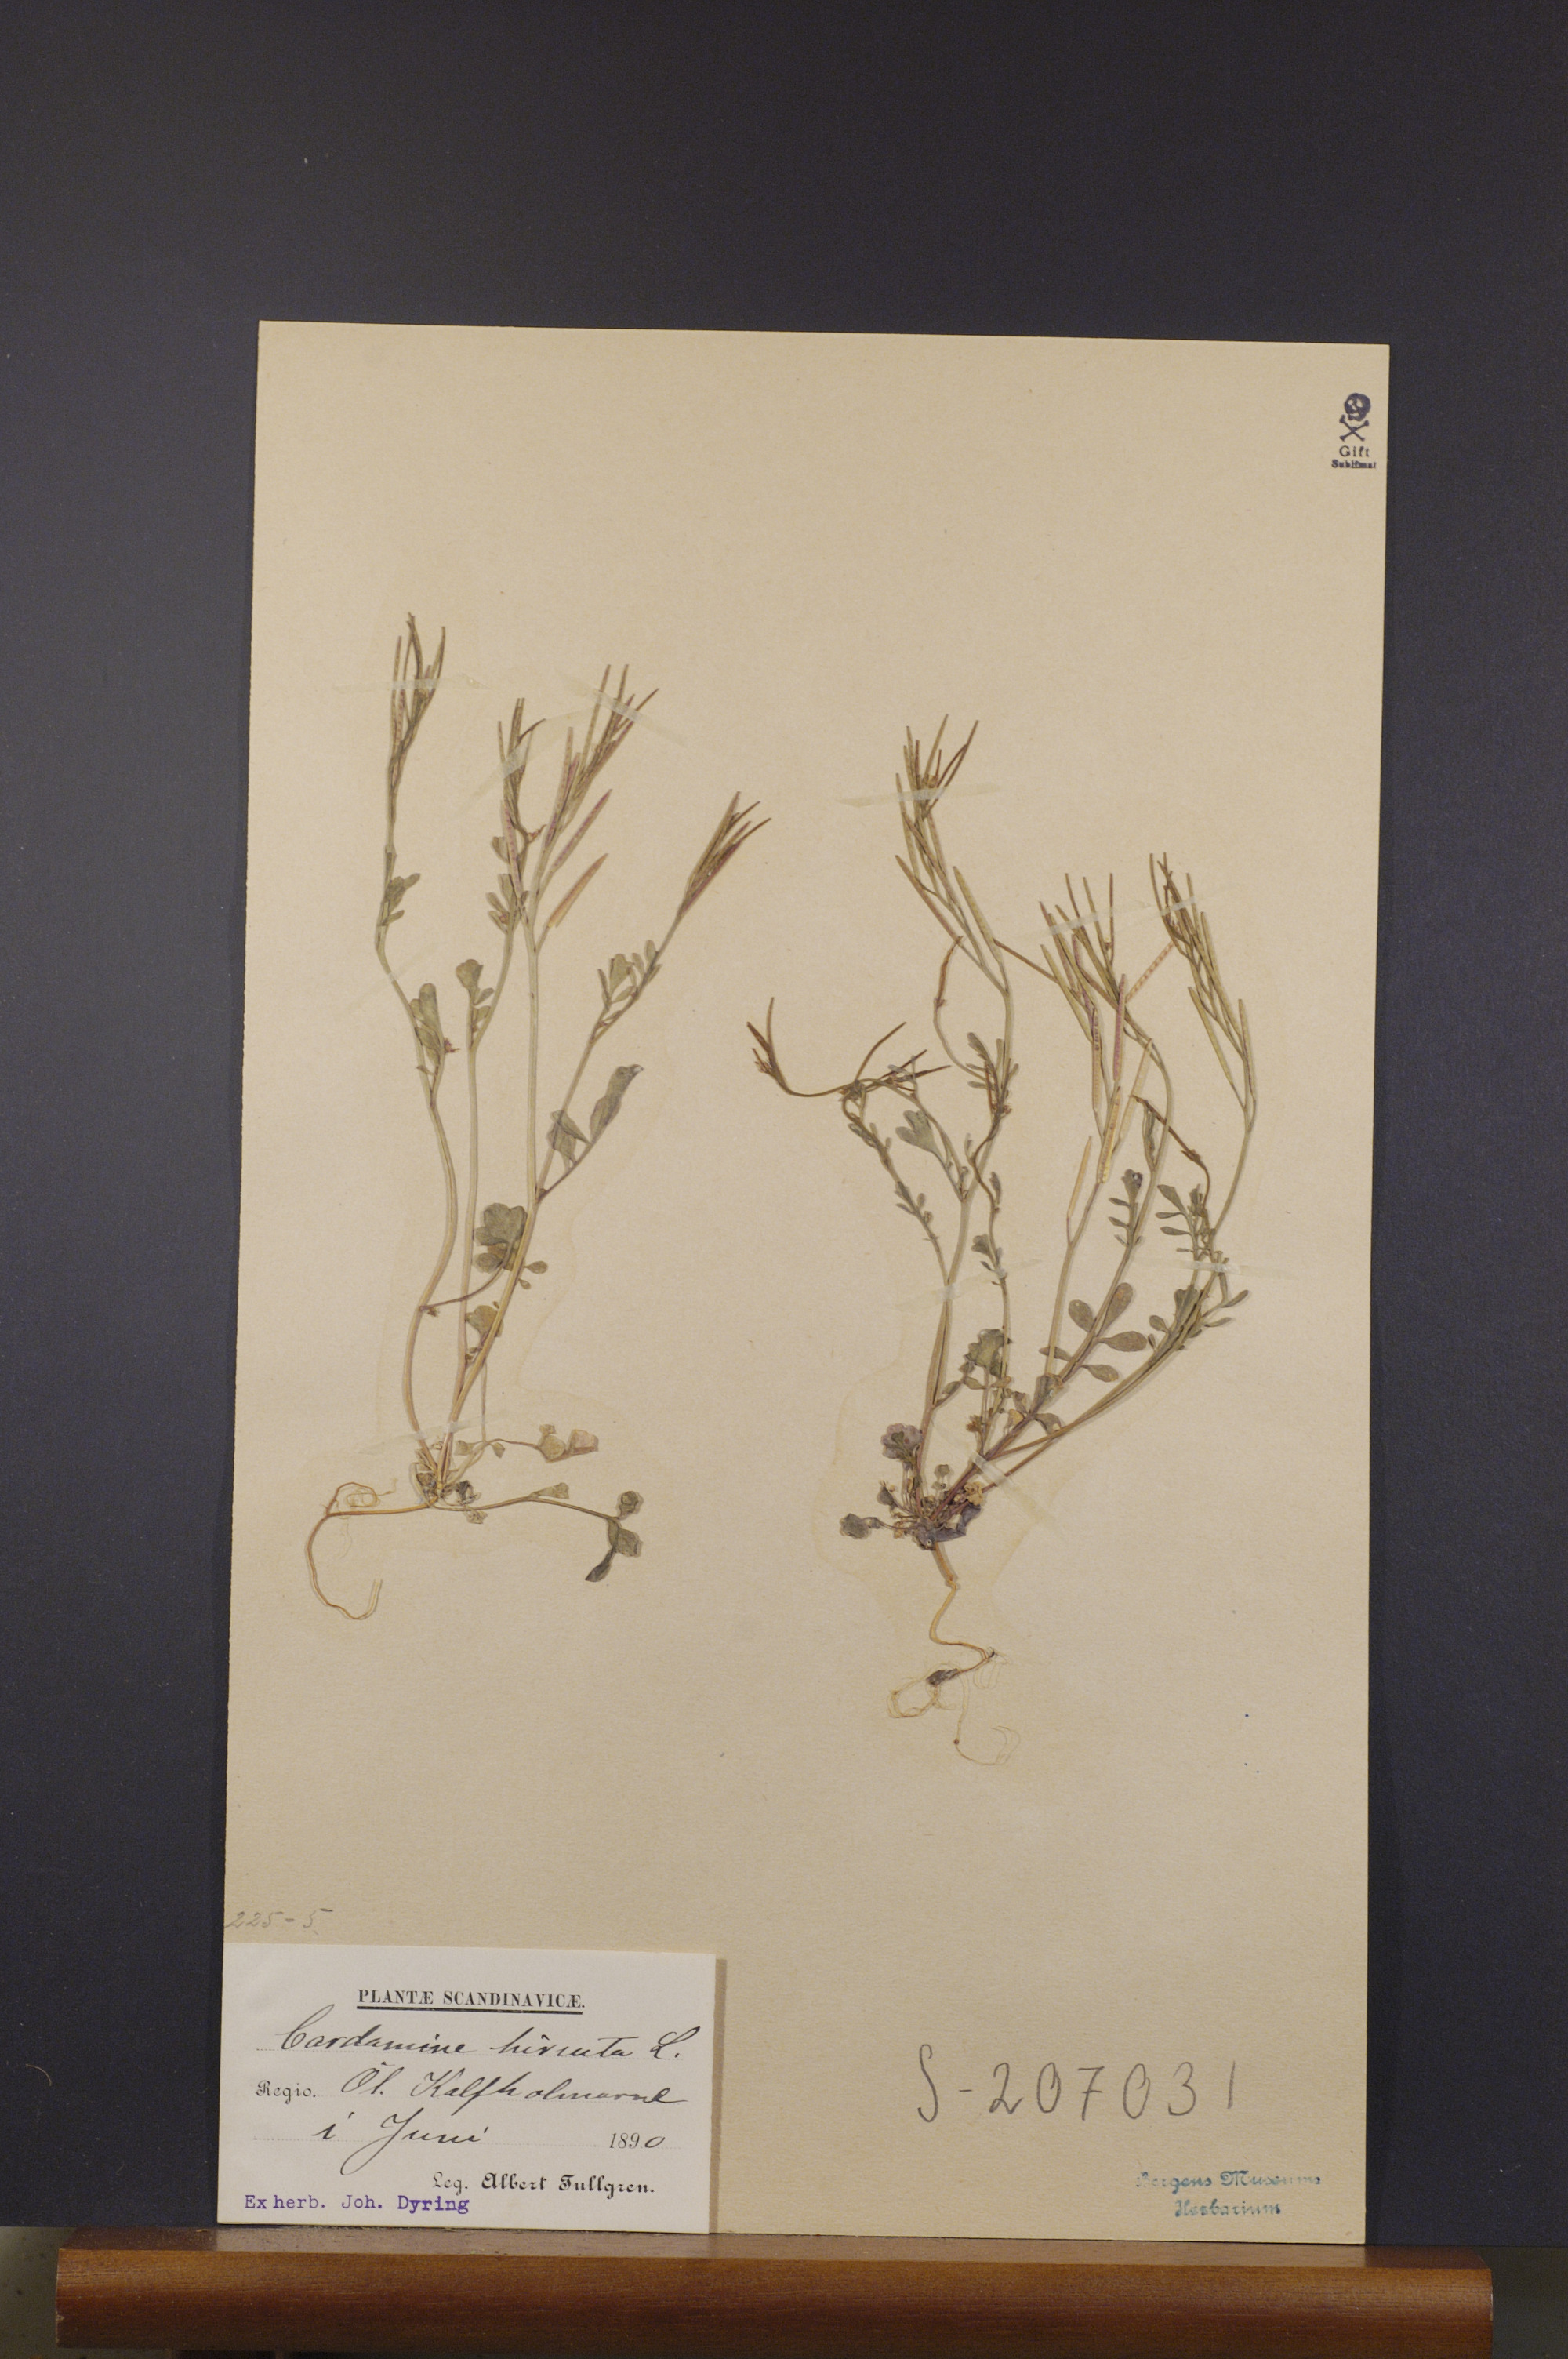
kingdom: Plantae
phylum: Tracheophyta
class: Magnoliopsida
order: Brassicales
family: Brassicaceae
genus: Cardamine
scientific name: Cardamine hirsuta
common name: Hairy bittercress
